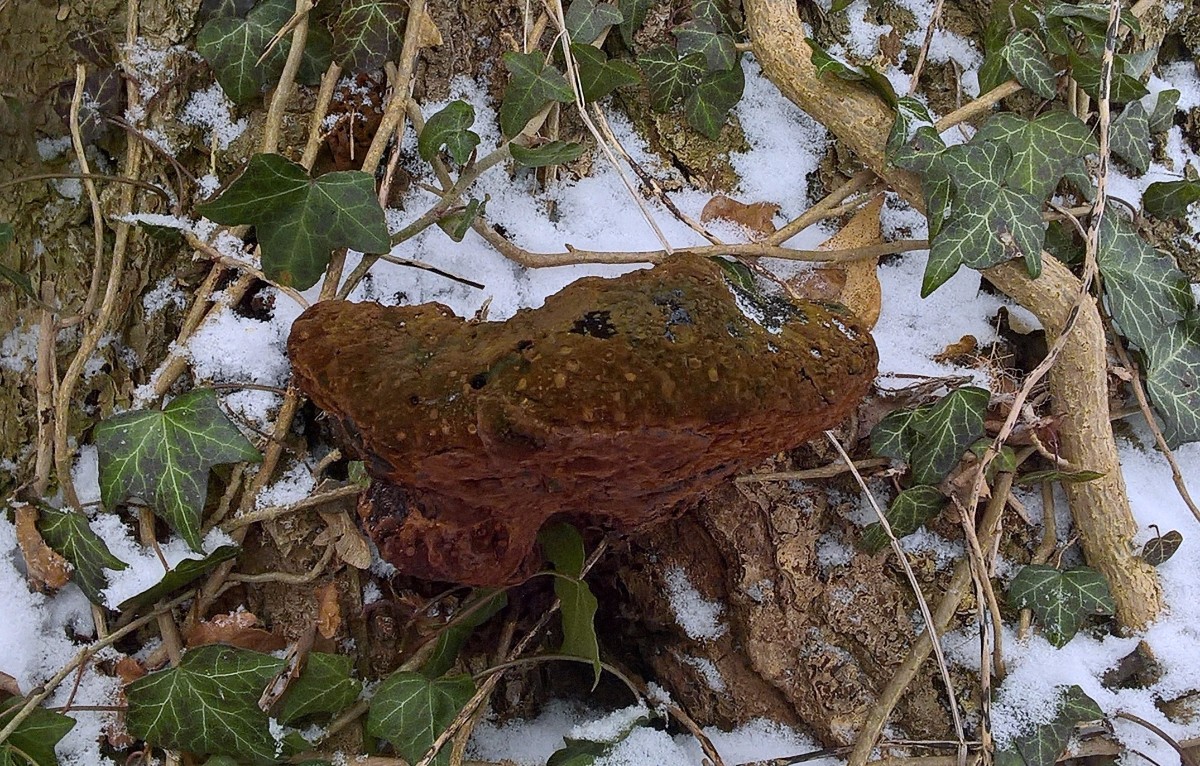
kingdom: Fungi
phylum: Basidiomycota
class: Agaricomycetes
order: Hymenochaetales
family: Hymenochaetaceae
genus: Pseudoinonotus
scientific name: Pseudoinonotus dryadeus
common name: ege-spejlporesvamp
